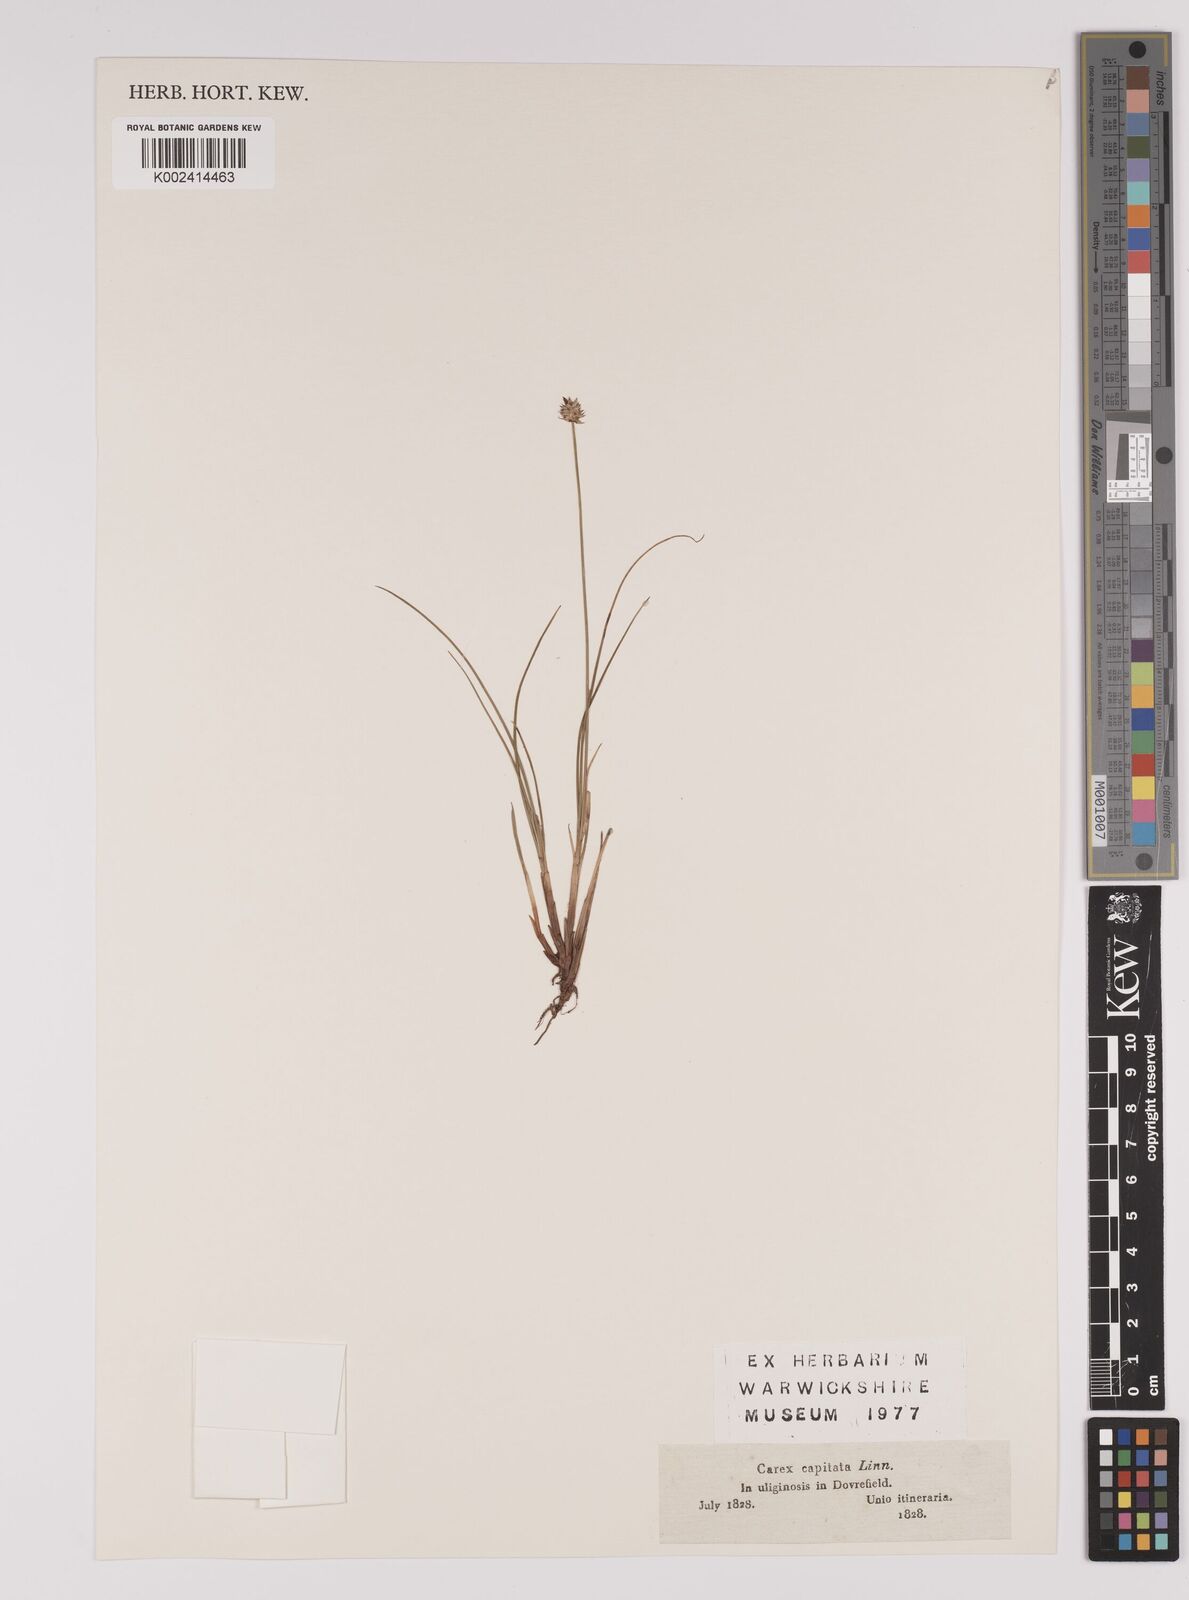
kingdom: Plantae
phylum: Tracheophyta
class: Liliopsida
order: Poales
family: Cyperaceae
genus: Carex
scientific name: Carex capitata
